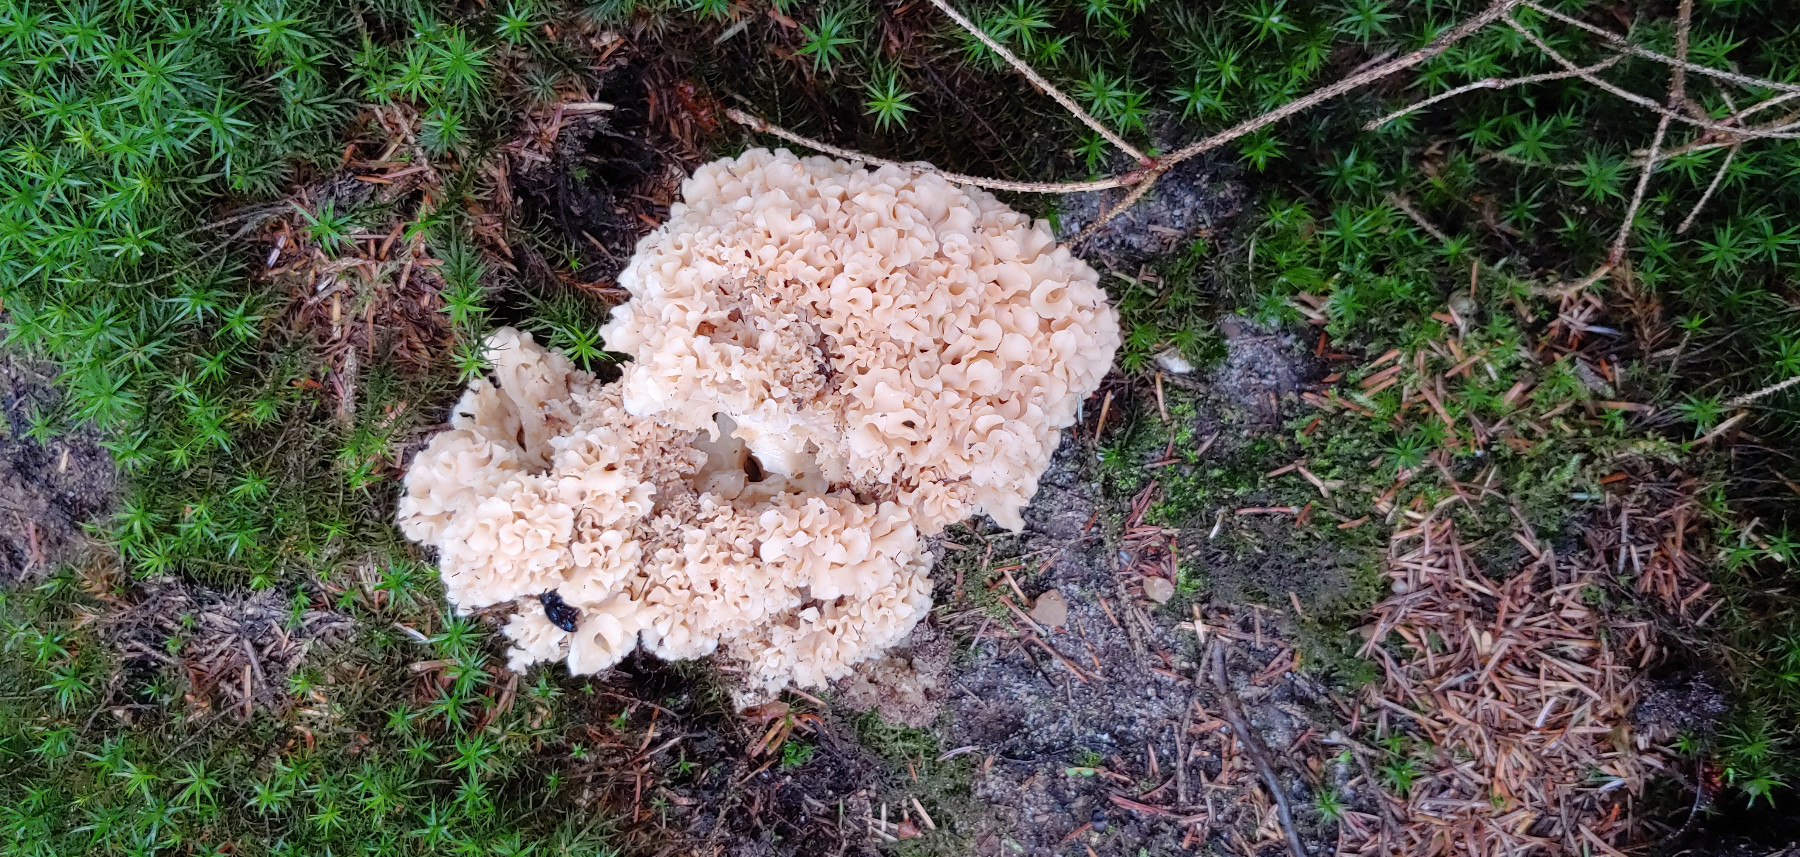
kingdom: Fungi
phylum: Basidiomycota
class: Agaricomycetes
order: Polyporales
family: Sparassidaceae
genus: Sparassis
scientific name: Sparassis crispa
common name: kruset blomkålssvamp
